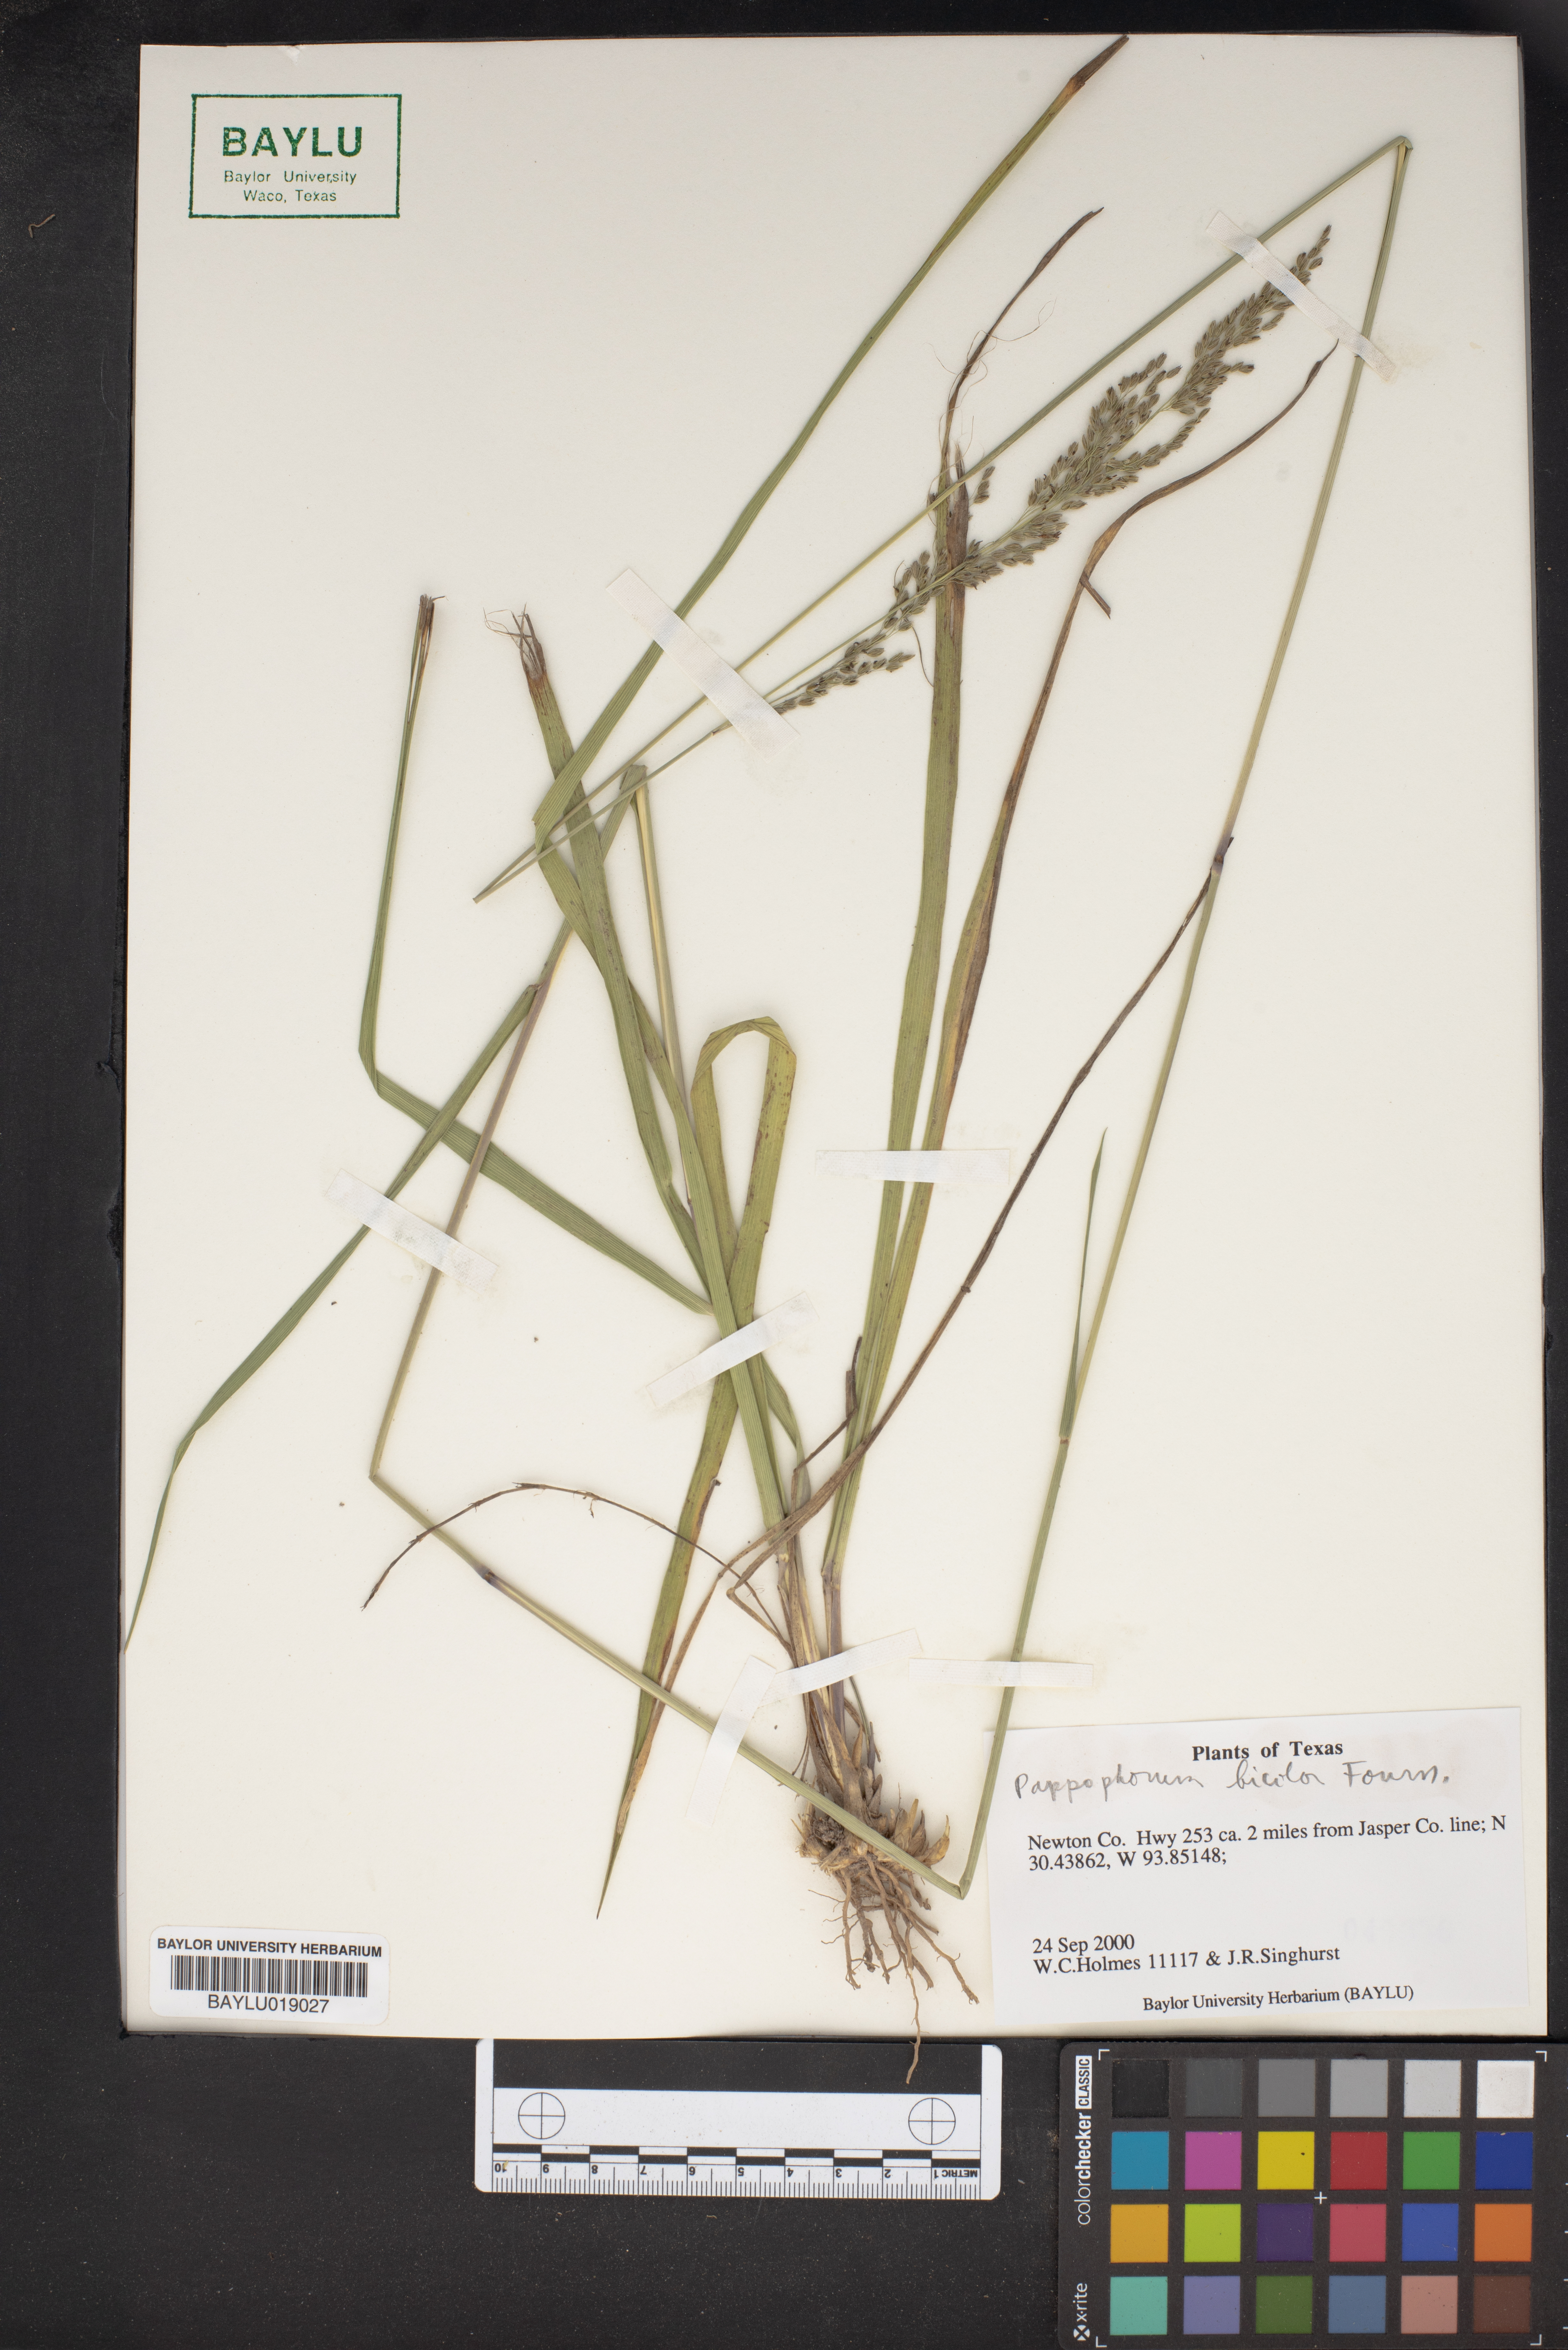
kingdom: Plantae
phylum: Tracheophyta
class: Liliopsida
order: Poales
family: Poaceae
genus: Pappophorum
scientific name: Pappophorum bicolor
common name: Pink pappus grass
